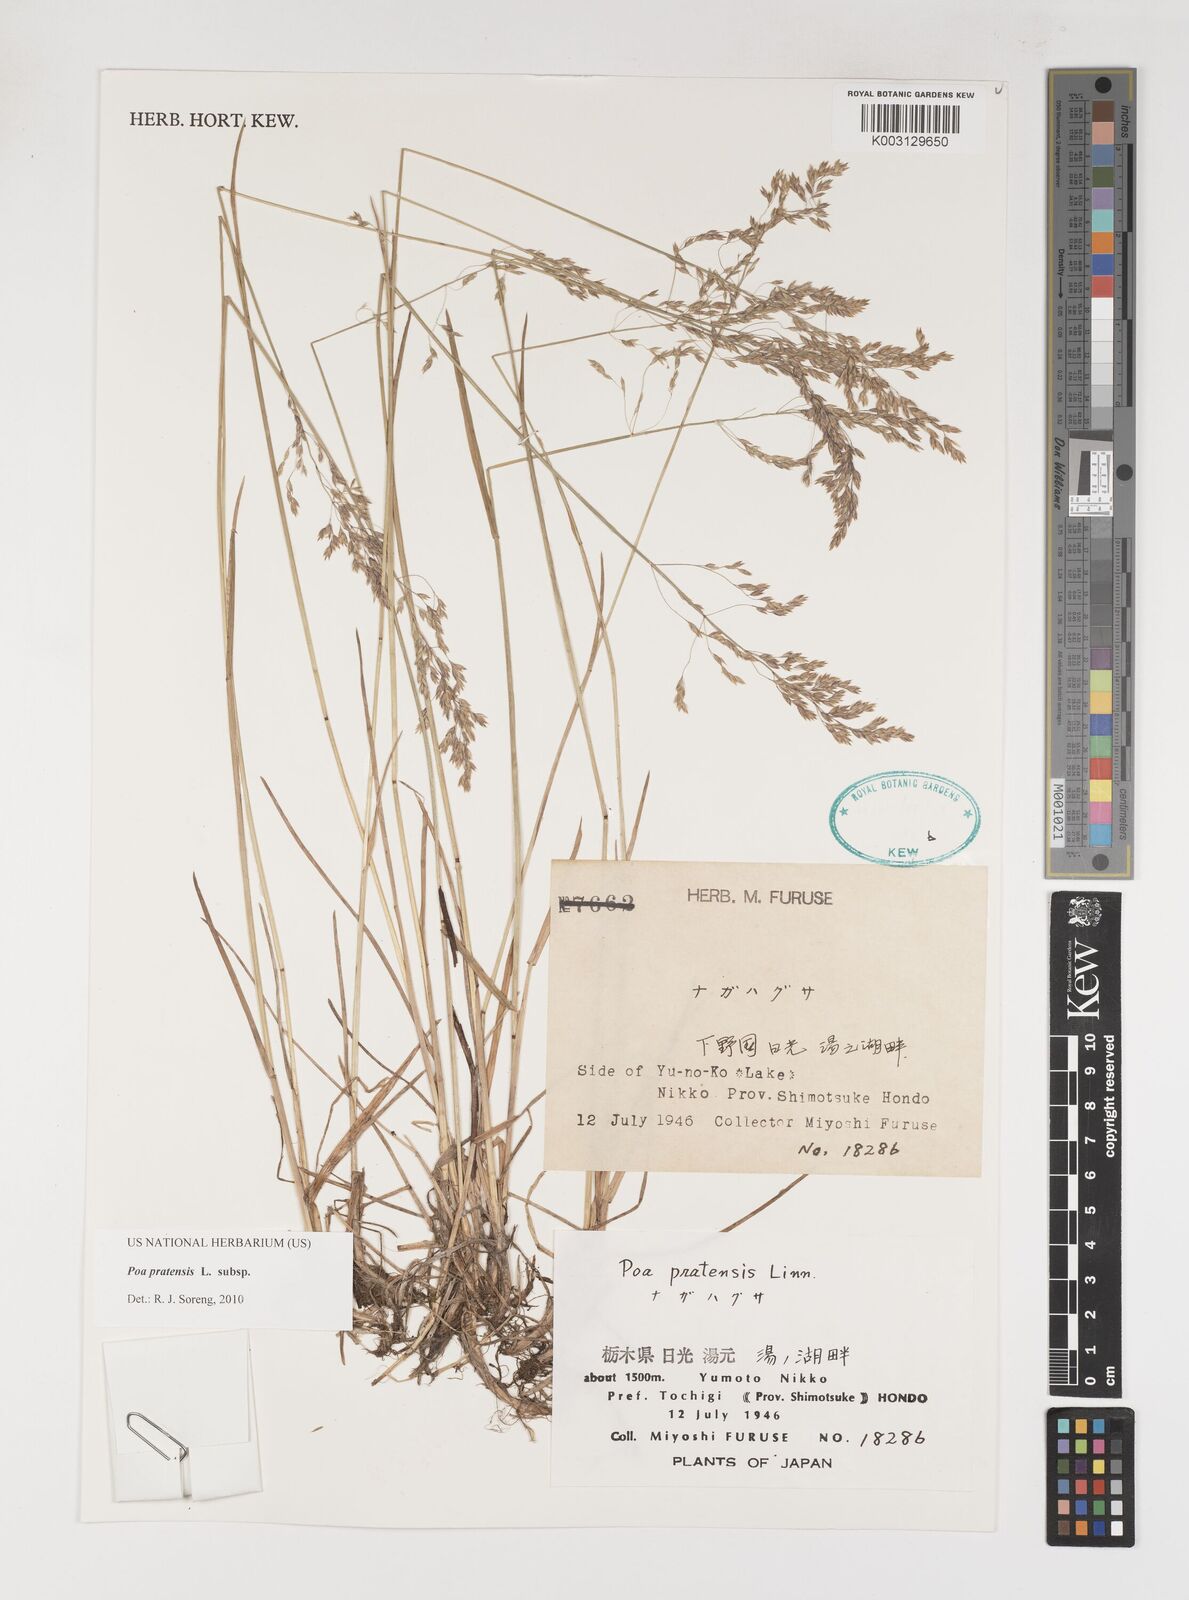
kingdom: Plantae
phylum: Tracheophyta
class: Liliopsida
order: Poales
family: Poaceae
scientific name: Poaceae
